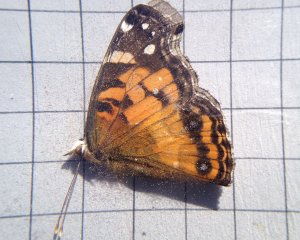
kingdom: Animalia
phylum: Arthropoda
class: Insecta
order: Lepidoptera
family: Nymphalidae
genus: Vanessa
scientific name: Vanessa virginiensis
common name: American Lady
